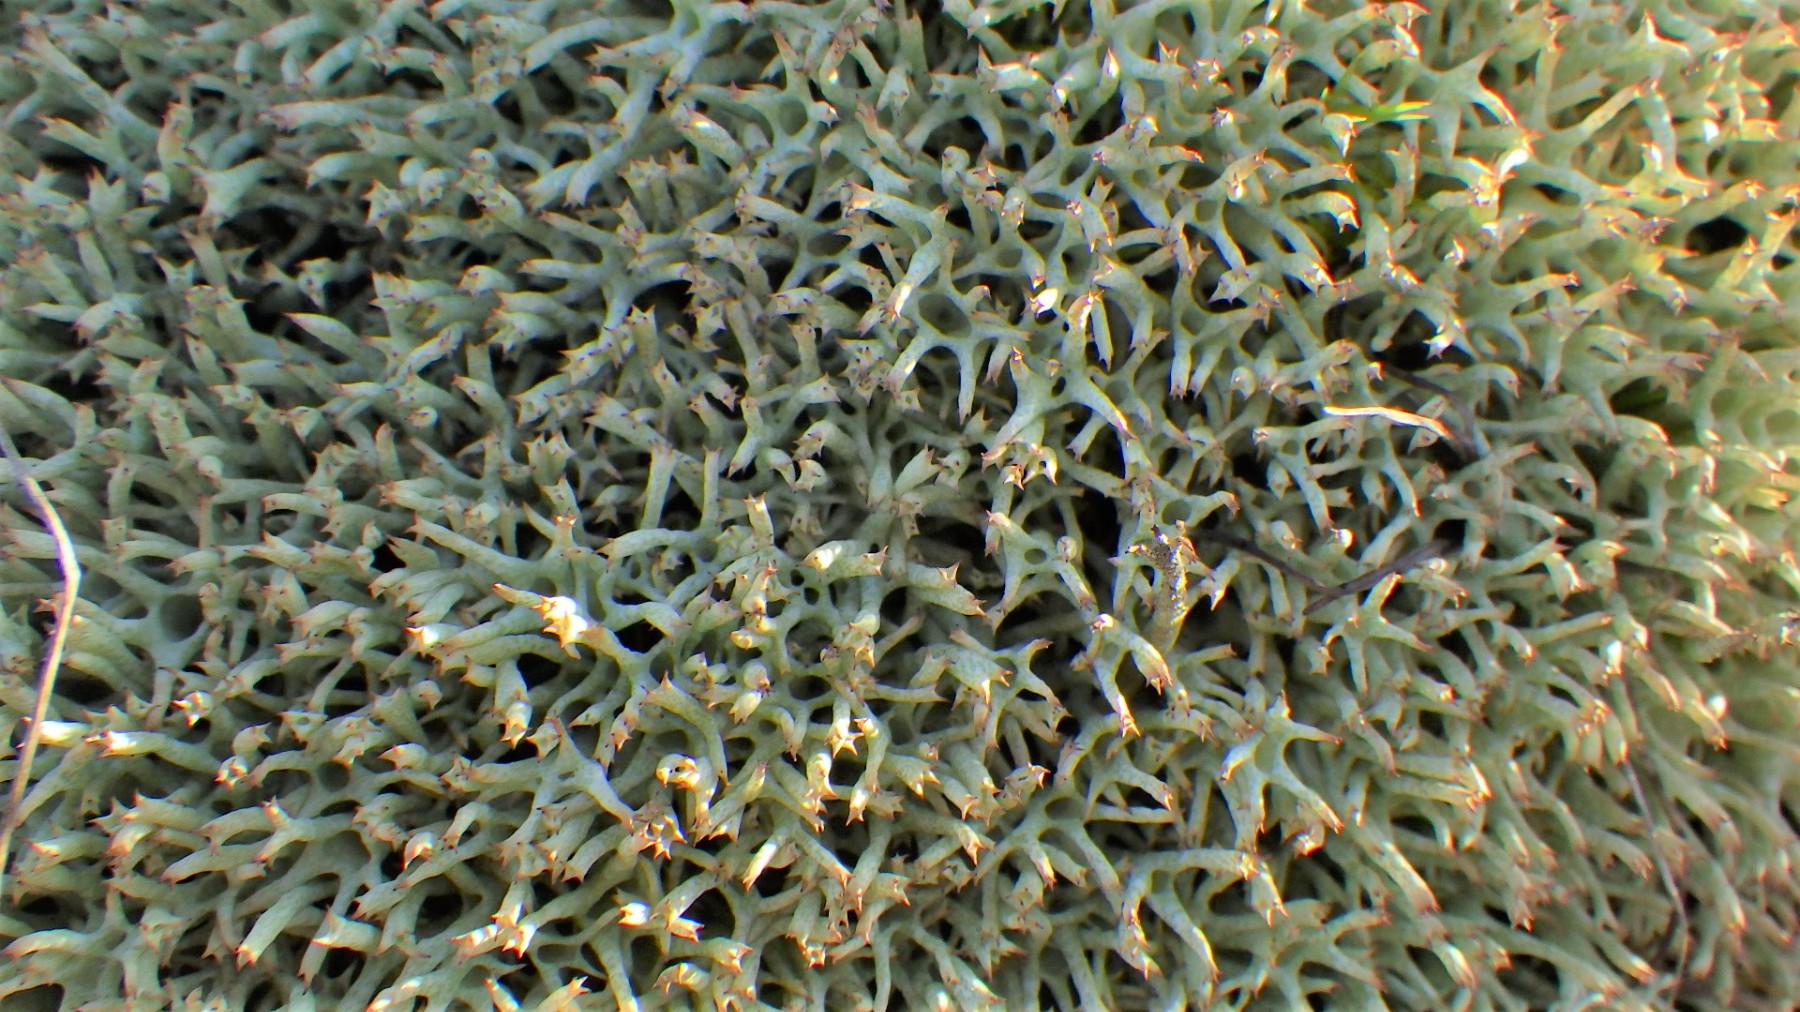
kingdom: Fungi
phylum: Ascomycota
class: Lecanoromycetes
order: Lecanorales
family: Cladoniaceae
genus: Cladonia
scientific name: Cladonia uncialis
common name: pigget bægerlav
